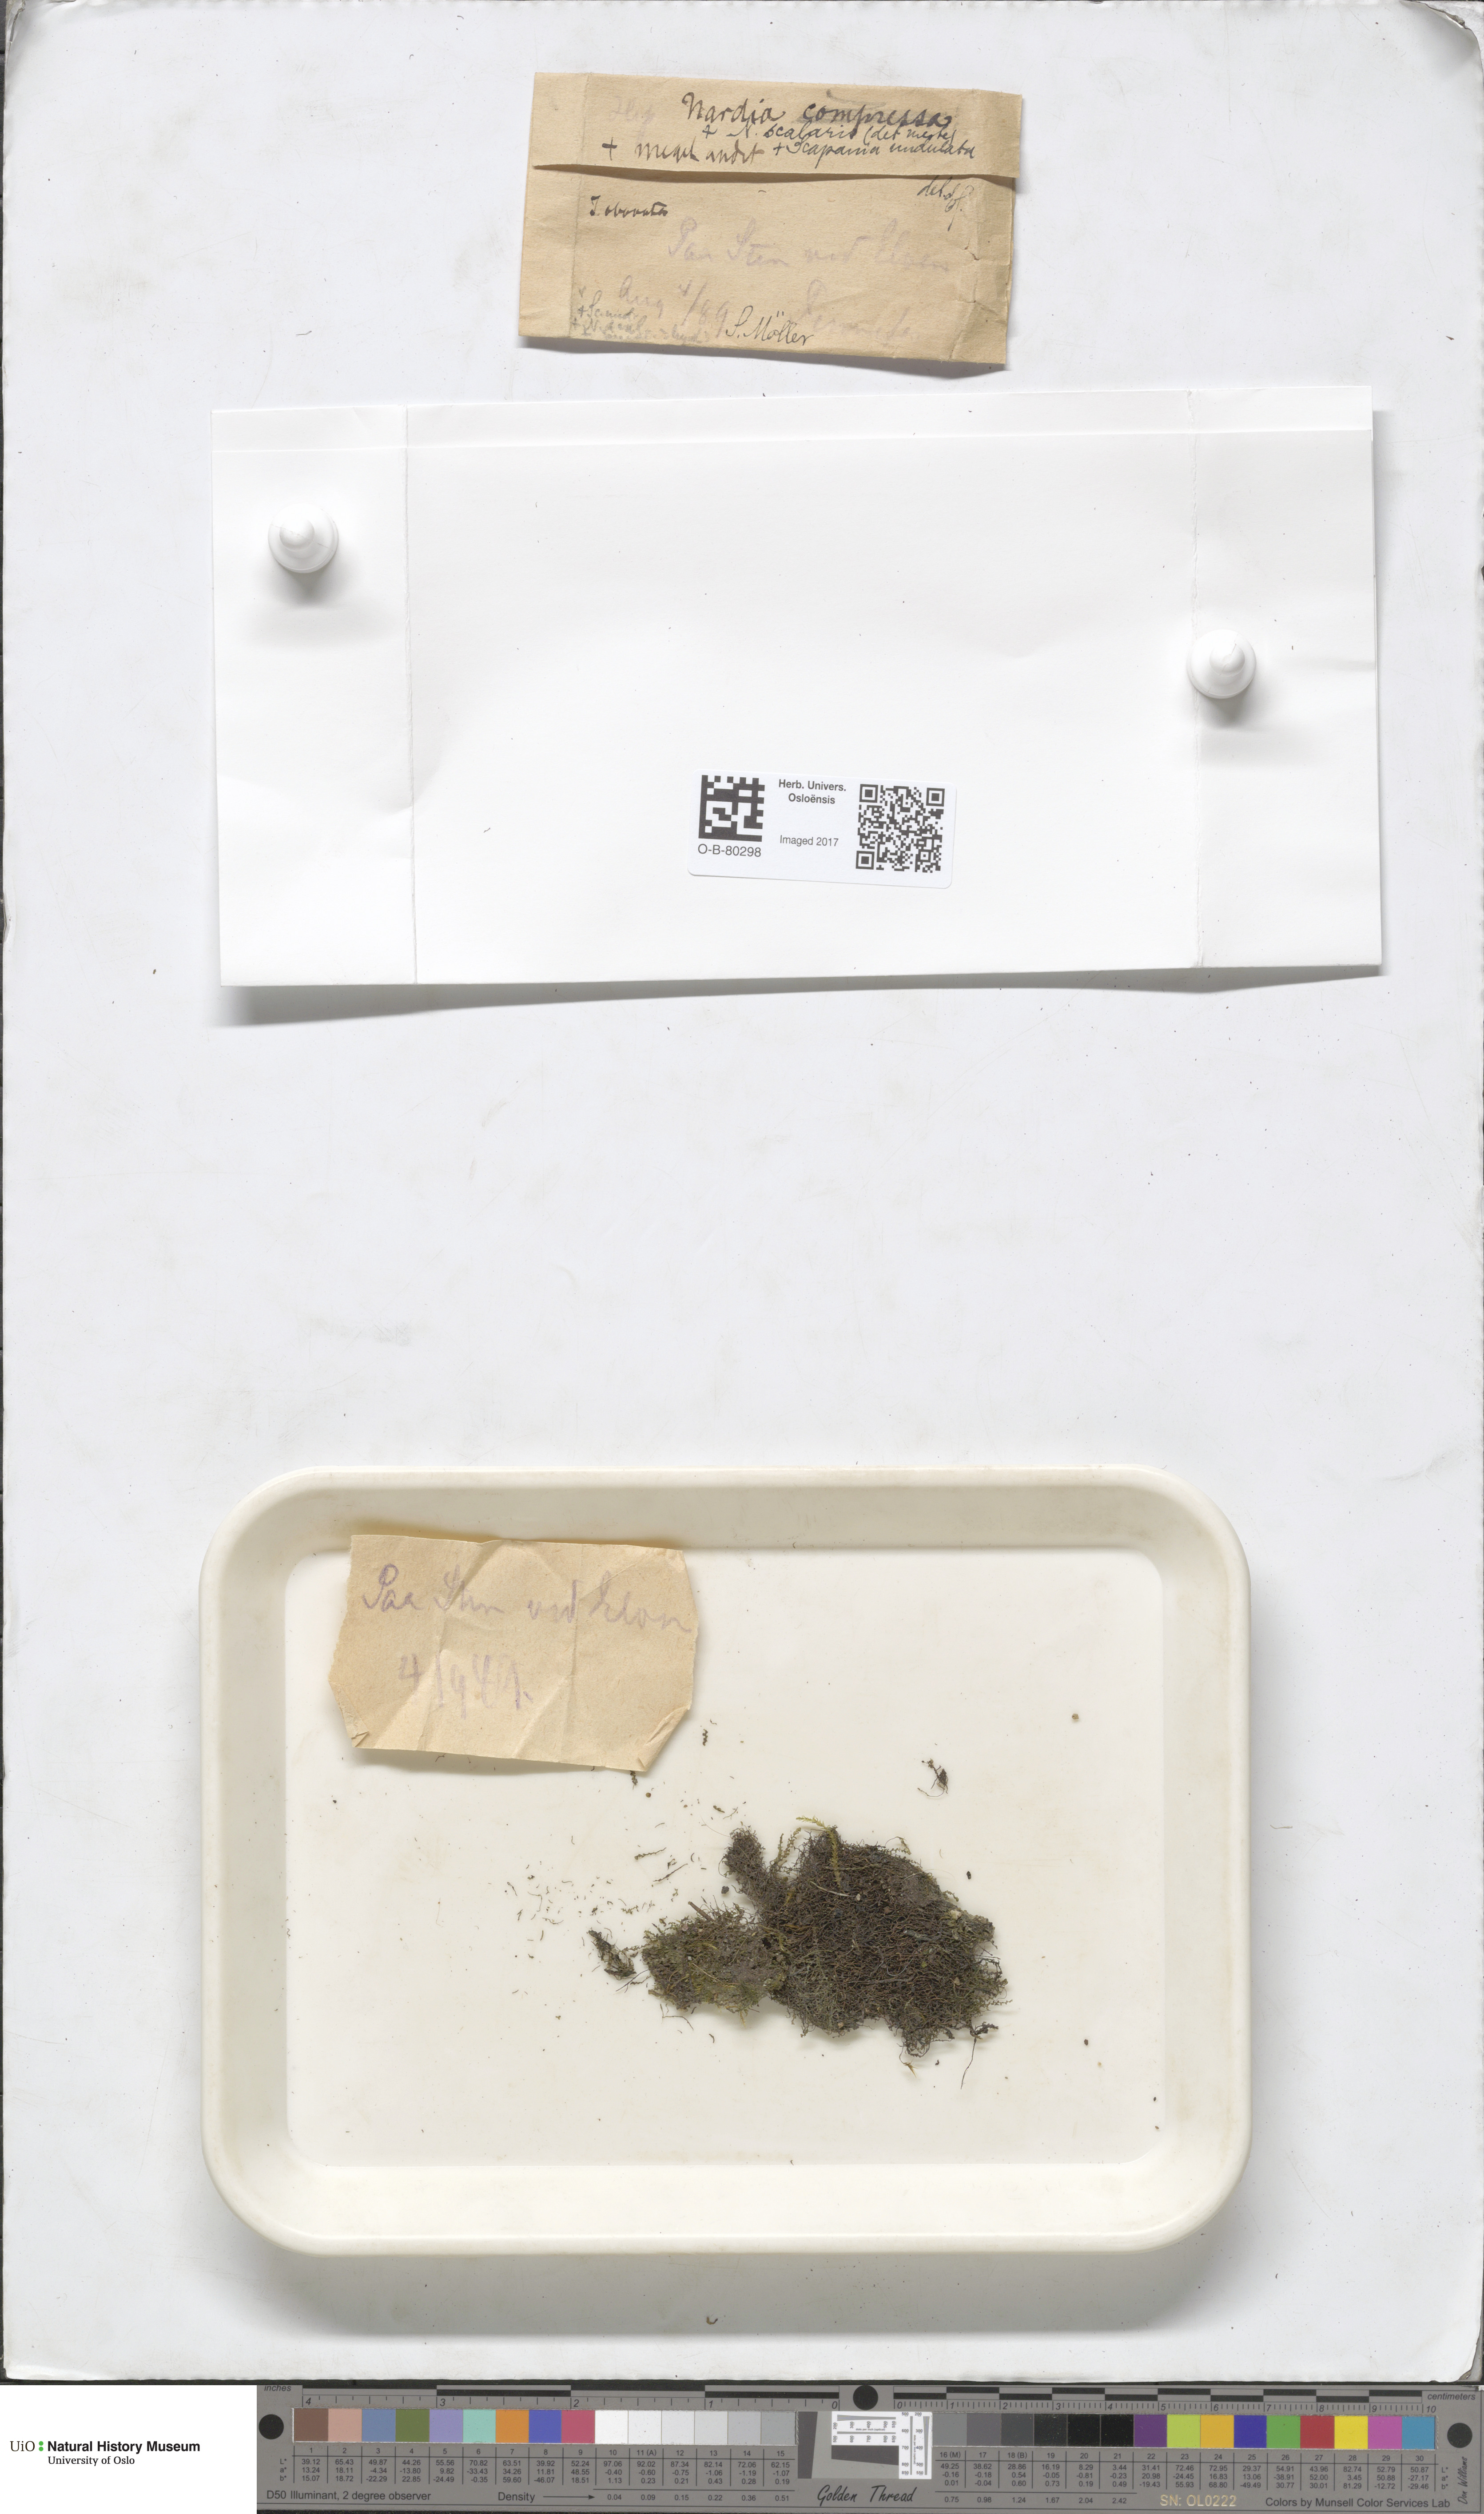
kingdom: Plantae
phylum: Marchantiophyta
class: Jungermanniopsida
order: Jungermanniales
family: Gymnomitriaceae
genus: Nardia
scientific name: Nardia compressa
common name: Compressed flapwort
